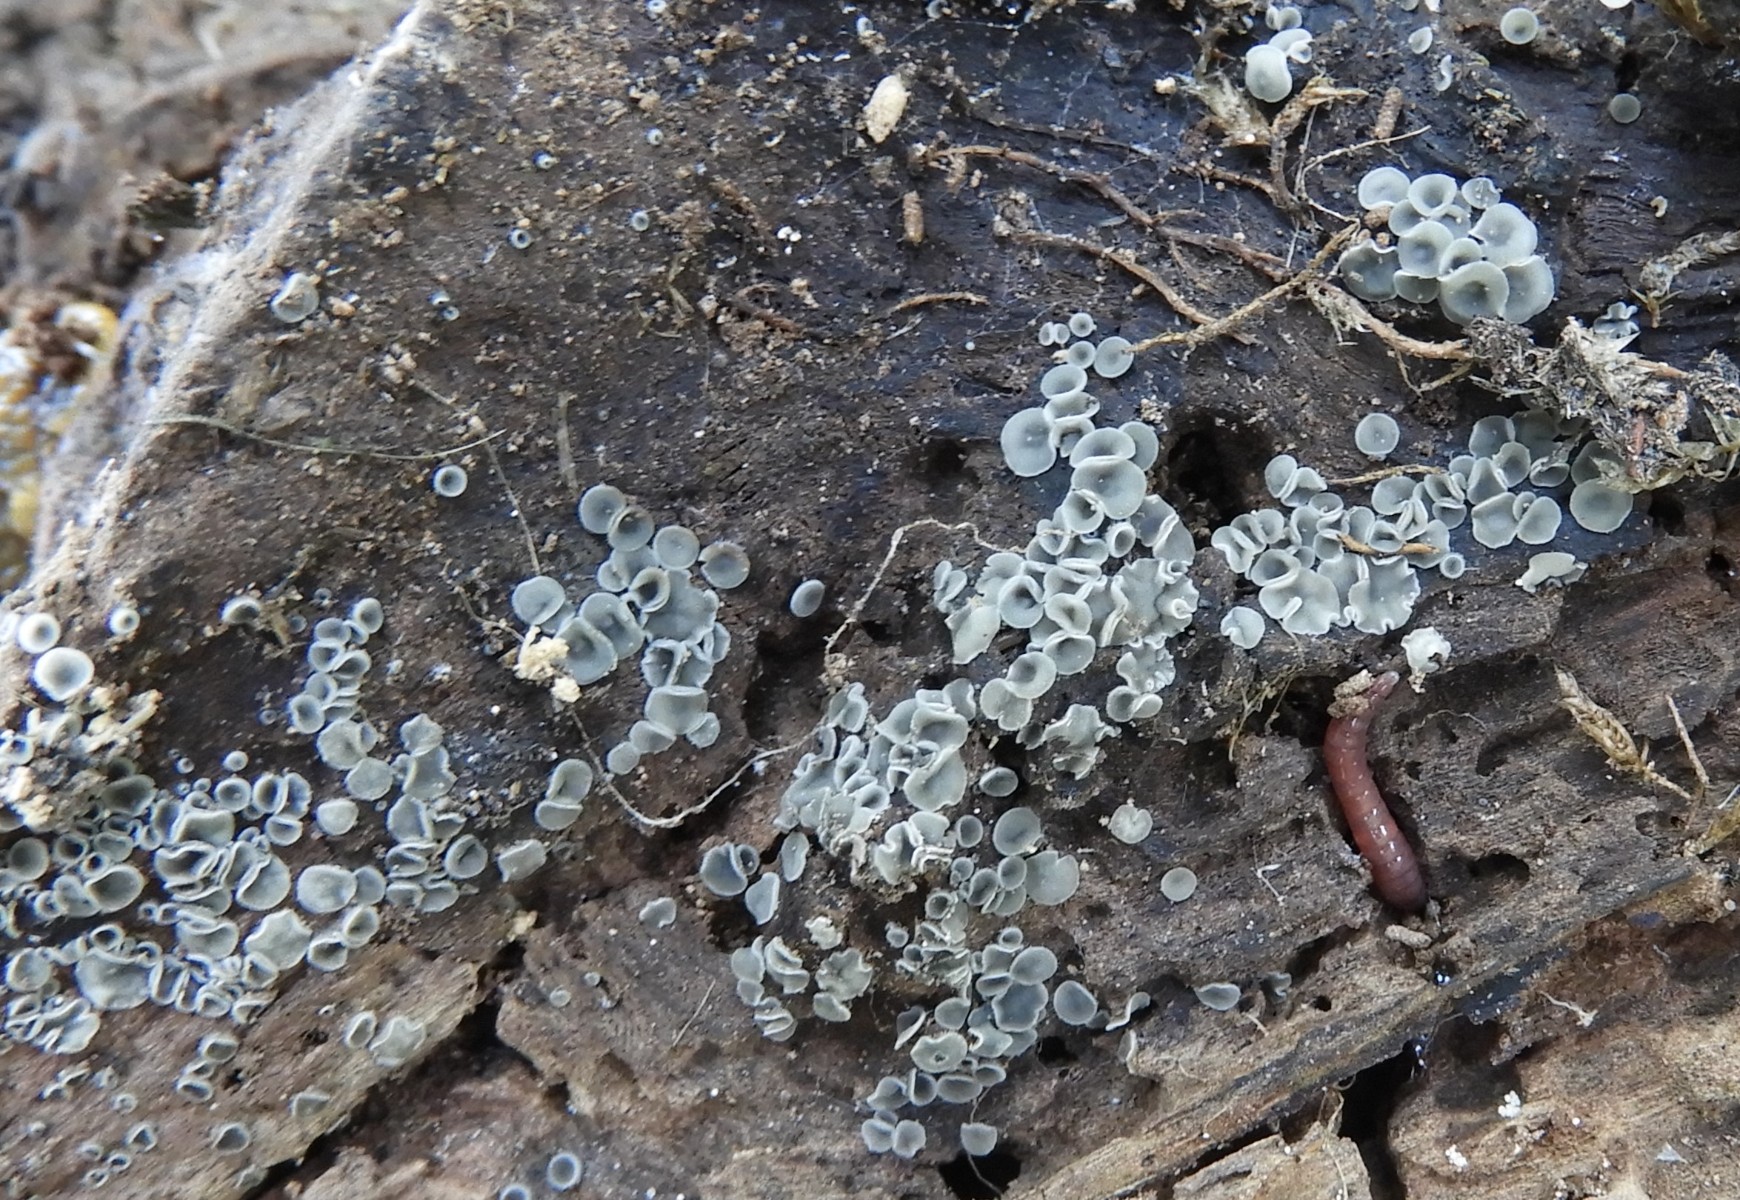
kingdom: Fungi
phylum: Ascomycota
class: Leotiomycetes
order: Helotiales
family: Mollisiaceae
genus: Mollisia
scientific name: Mollisia cinerea
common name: almindelig gråskive
